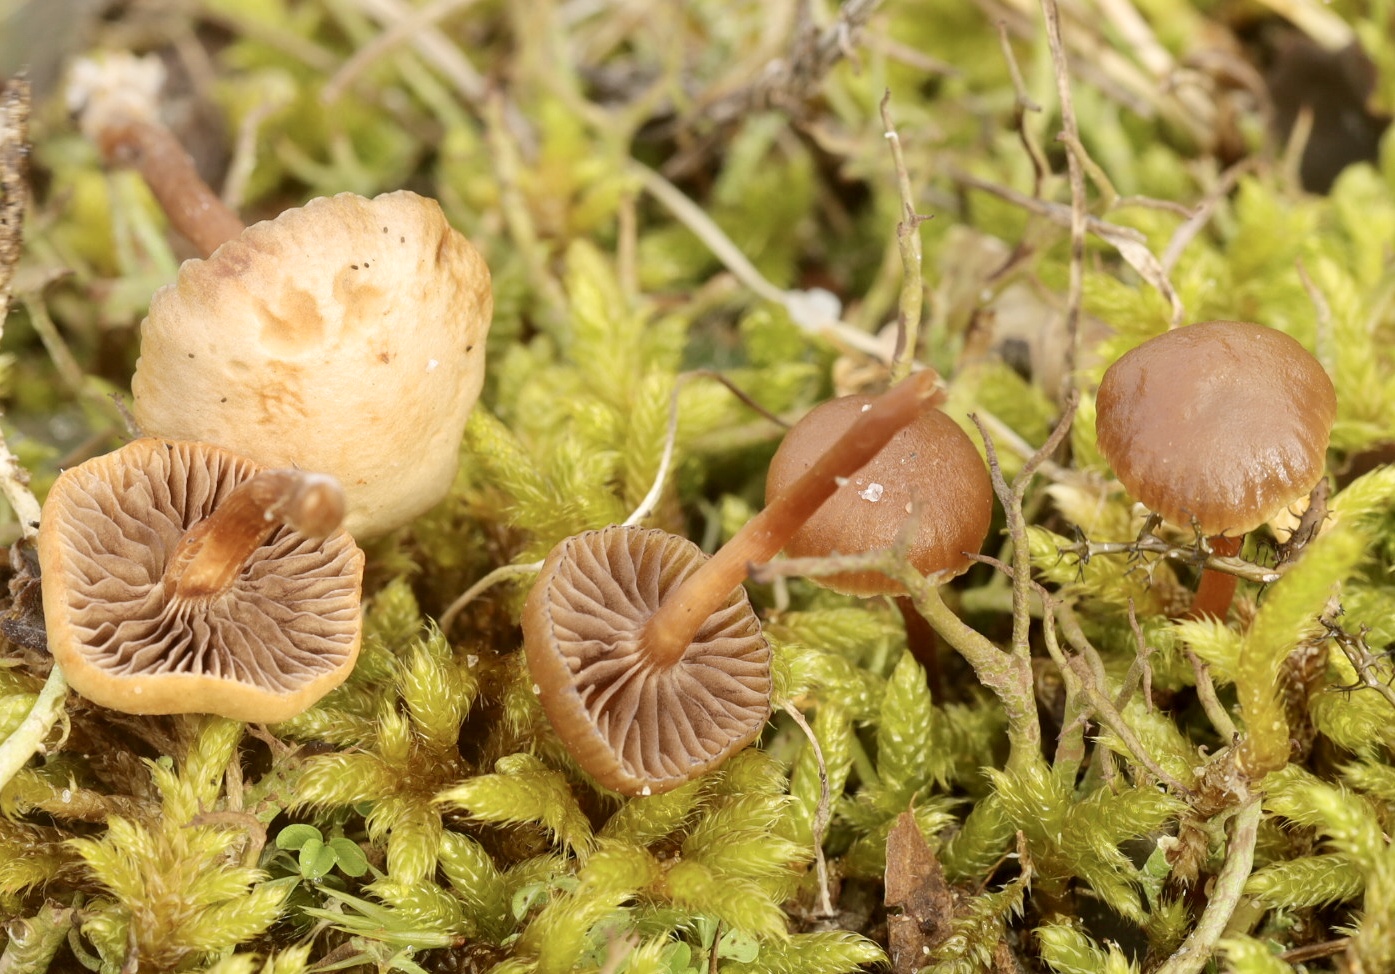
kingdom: Fungi
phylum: Basidiomycota
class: Agaricomycetes
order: Agaricales
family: Strophariaceae
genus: Deconica
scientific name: Deconica montana
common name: rødbrun stråhat
